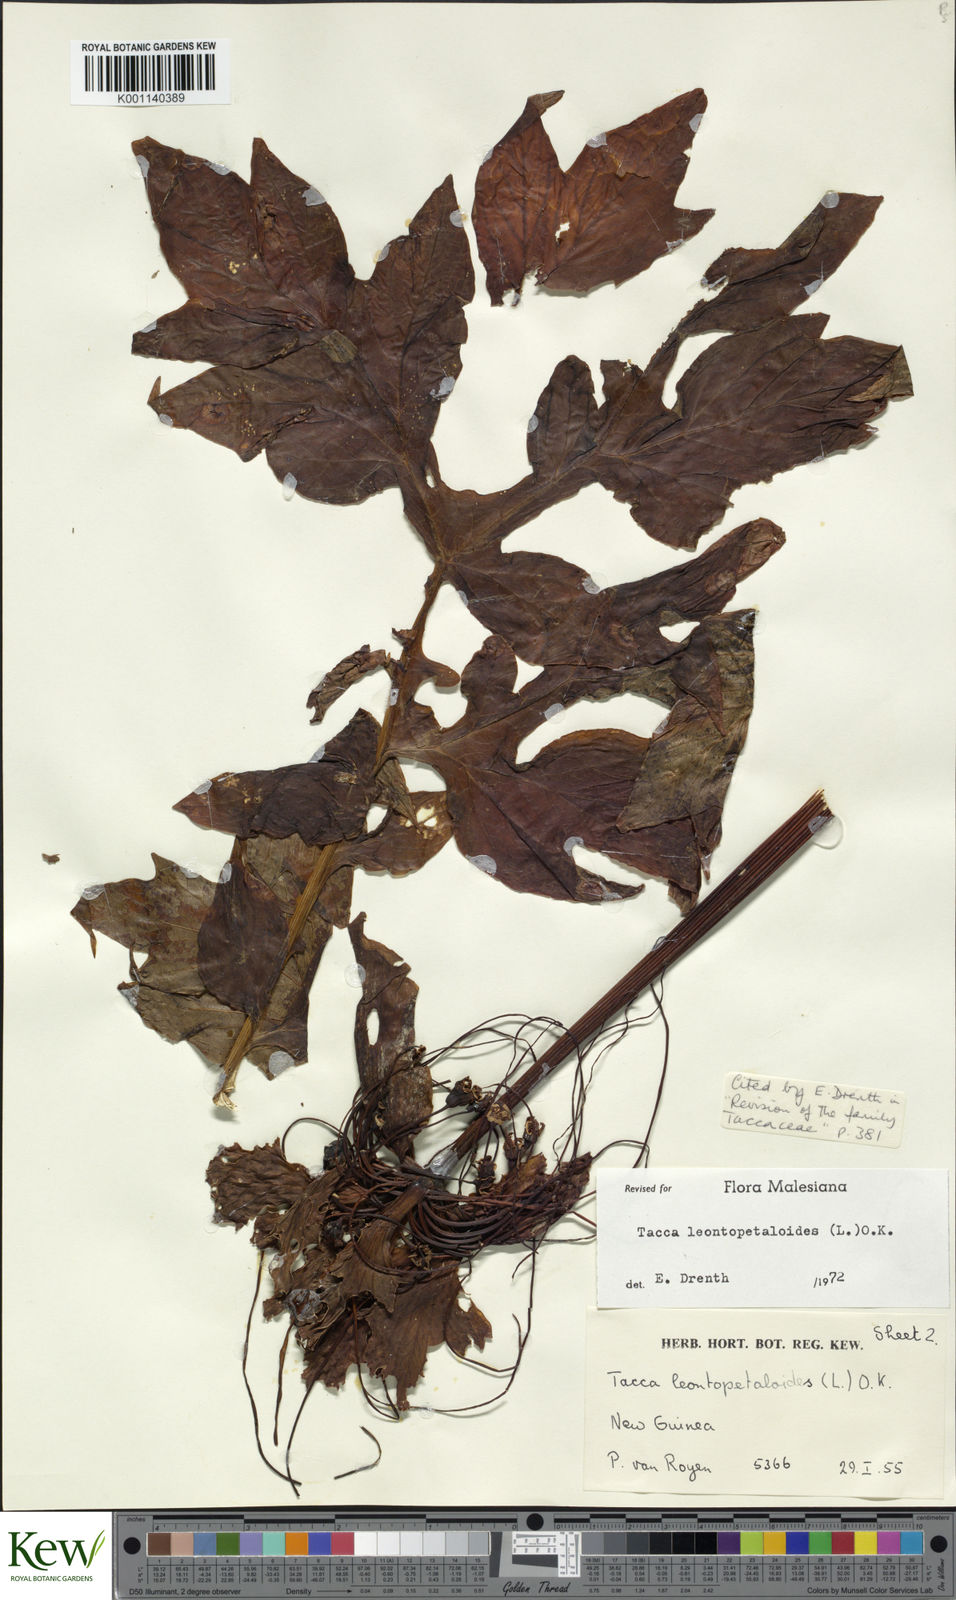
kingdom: Plantae
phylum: Tracheophyta
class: Liliopsida
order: Dioscoreales
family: Dioscoreaceae
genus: Tacca
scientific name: Tacca leontopetaloides
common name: Arrowroot
